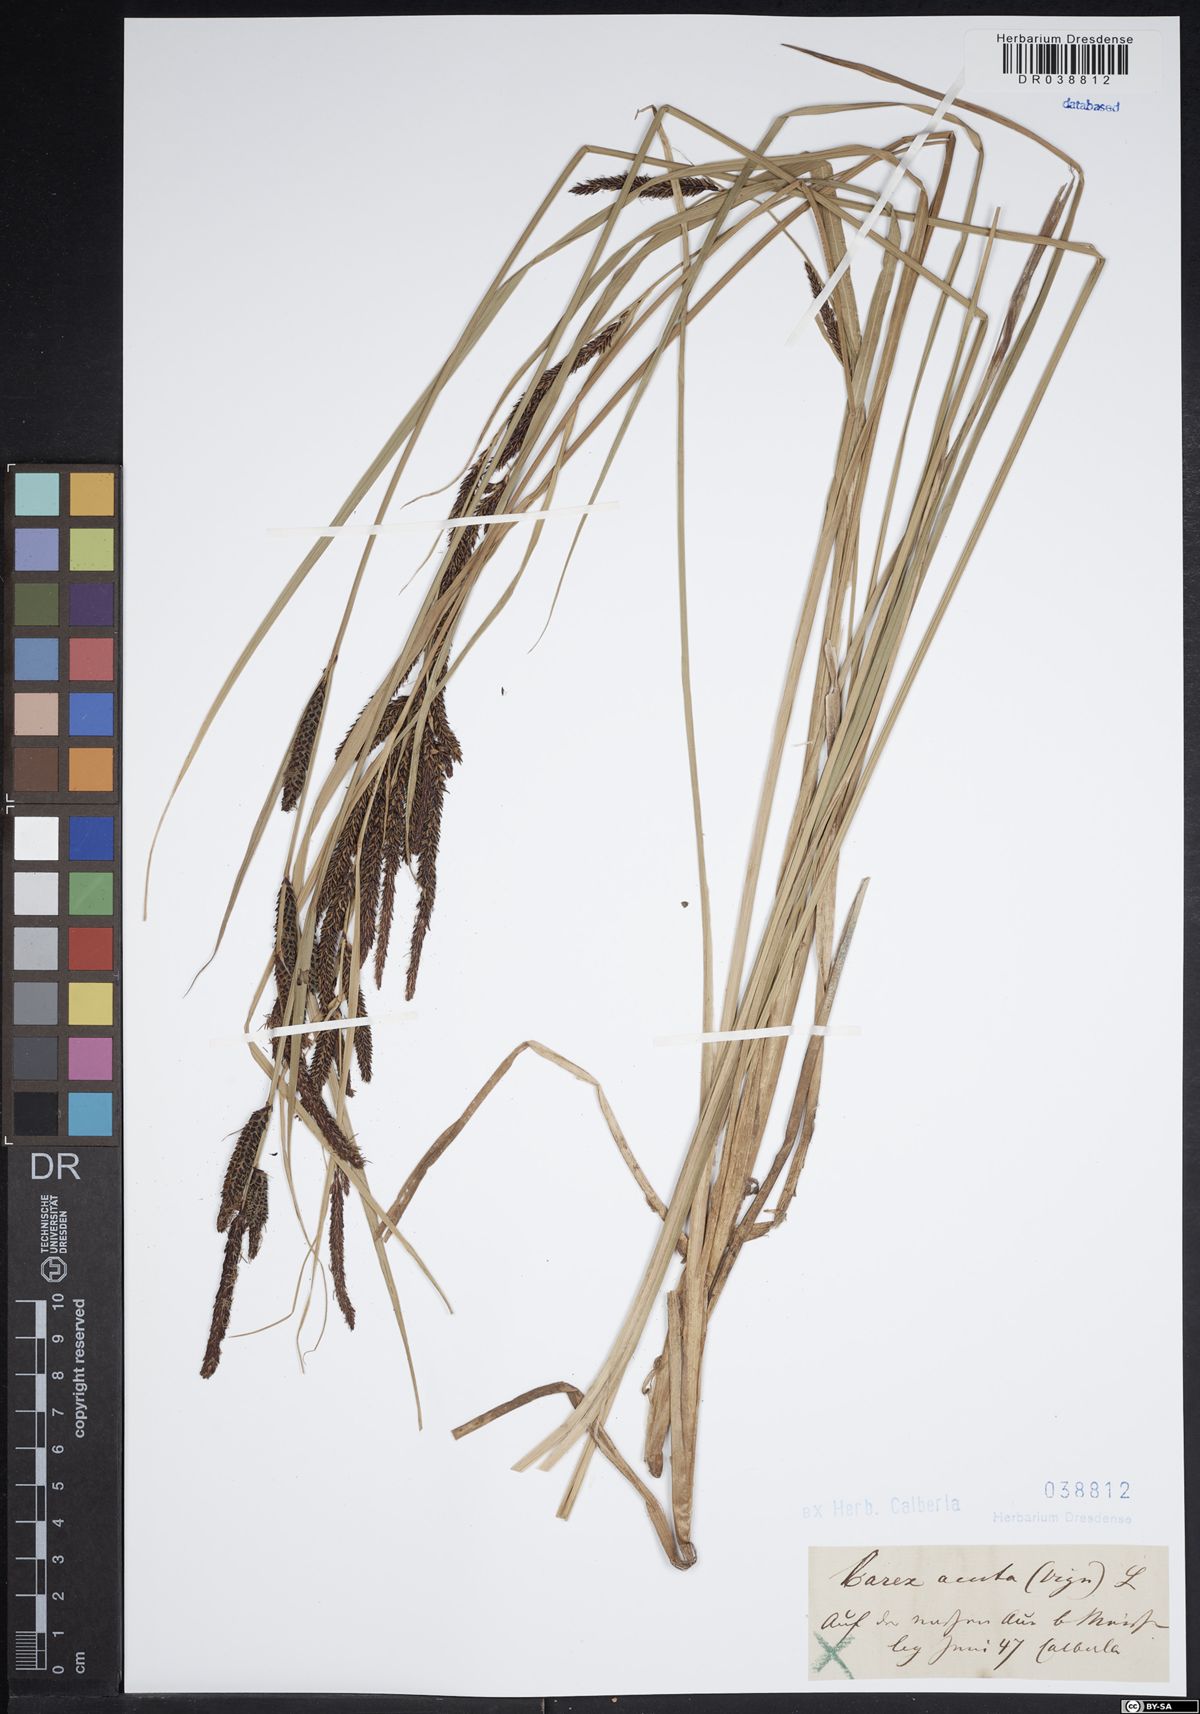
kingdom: Plantae
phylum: Tracheophyta
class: Liliopsida
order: Poales
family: Cyperaceae
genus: Carex
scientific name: Carex acuta
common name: Slender tufted-sedge
